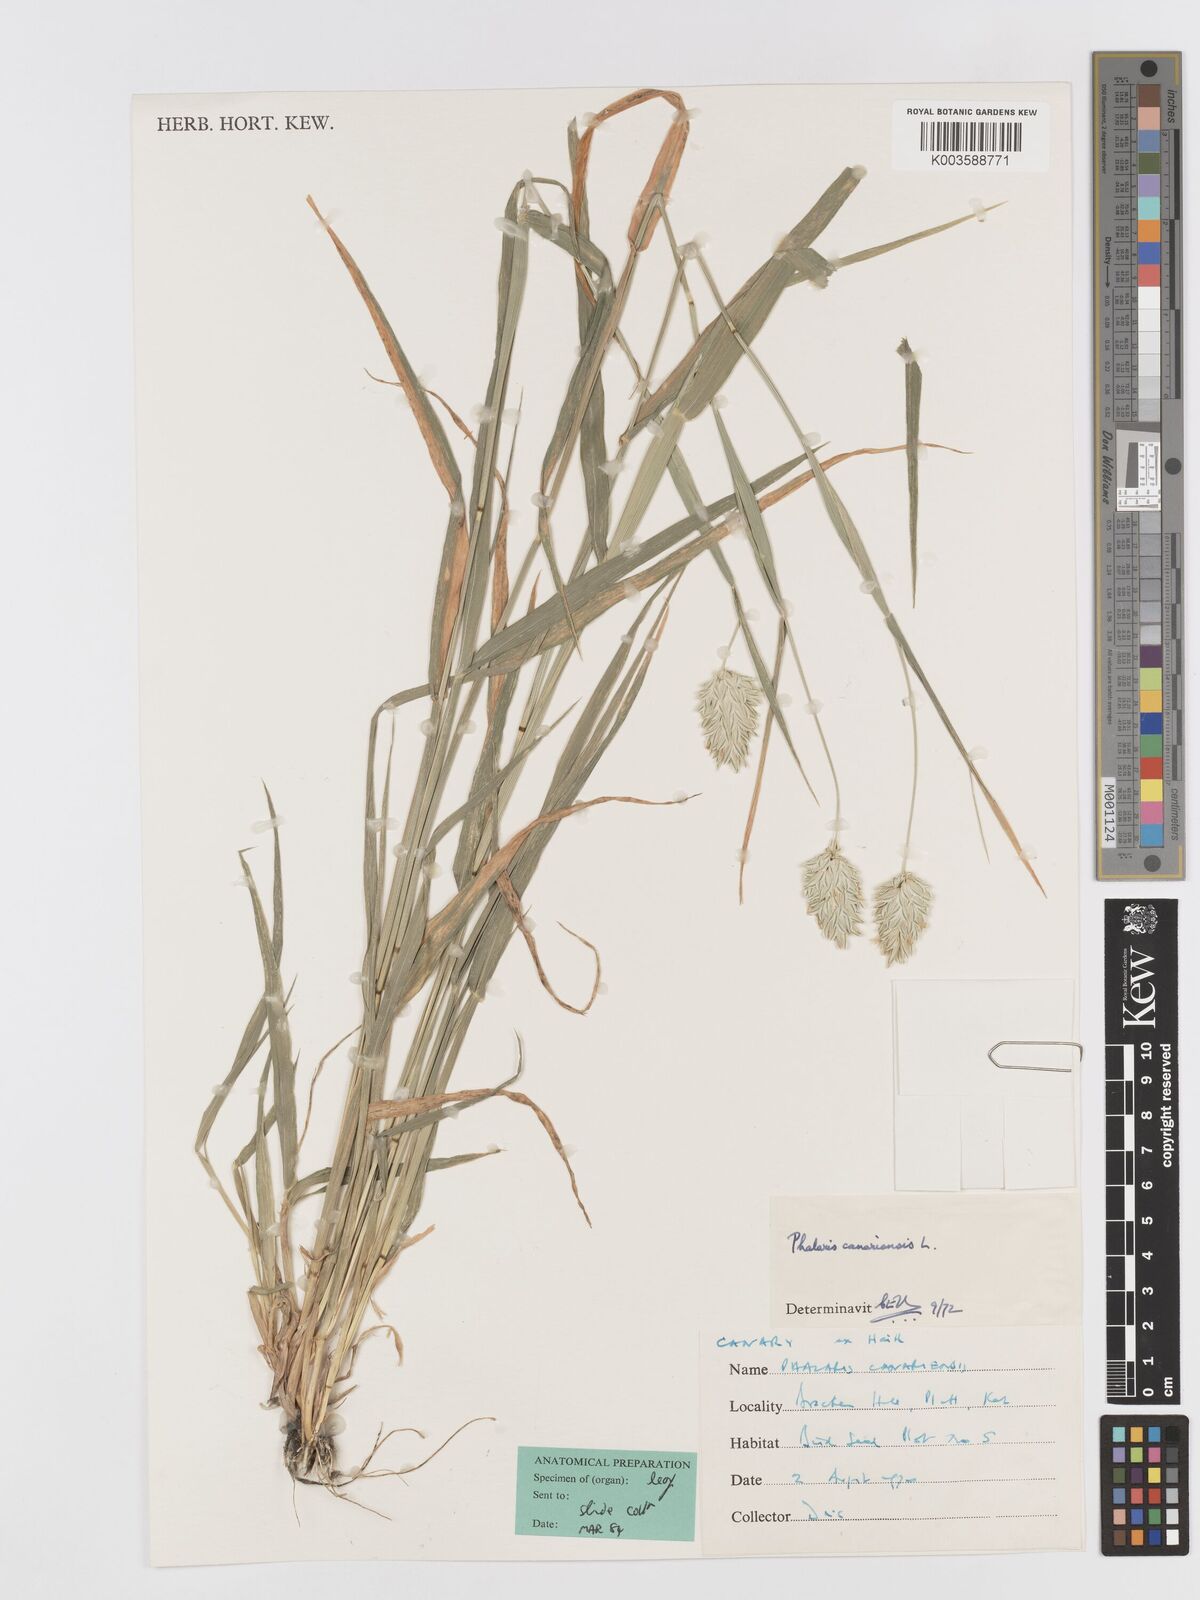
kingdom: Plantae
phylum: Tracheophyta
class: Liliopsida
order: Poales
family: Poaceae
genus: Phalaris
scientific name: Phalaris canariensis
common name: Annual canarygrass
